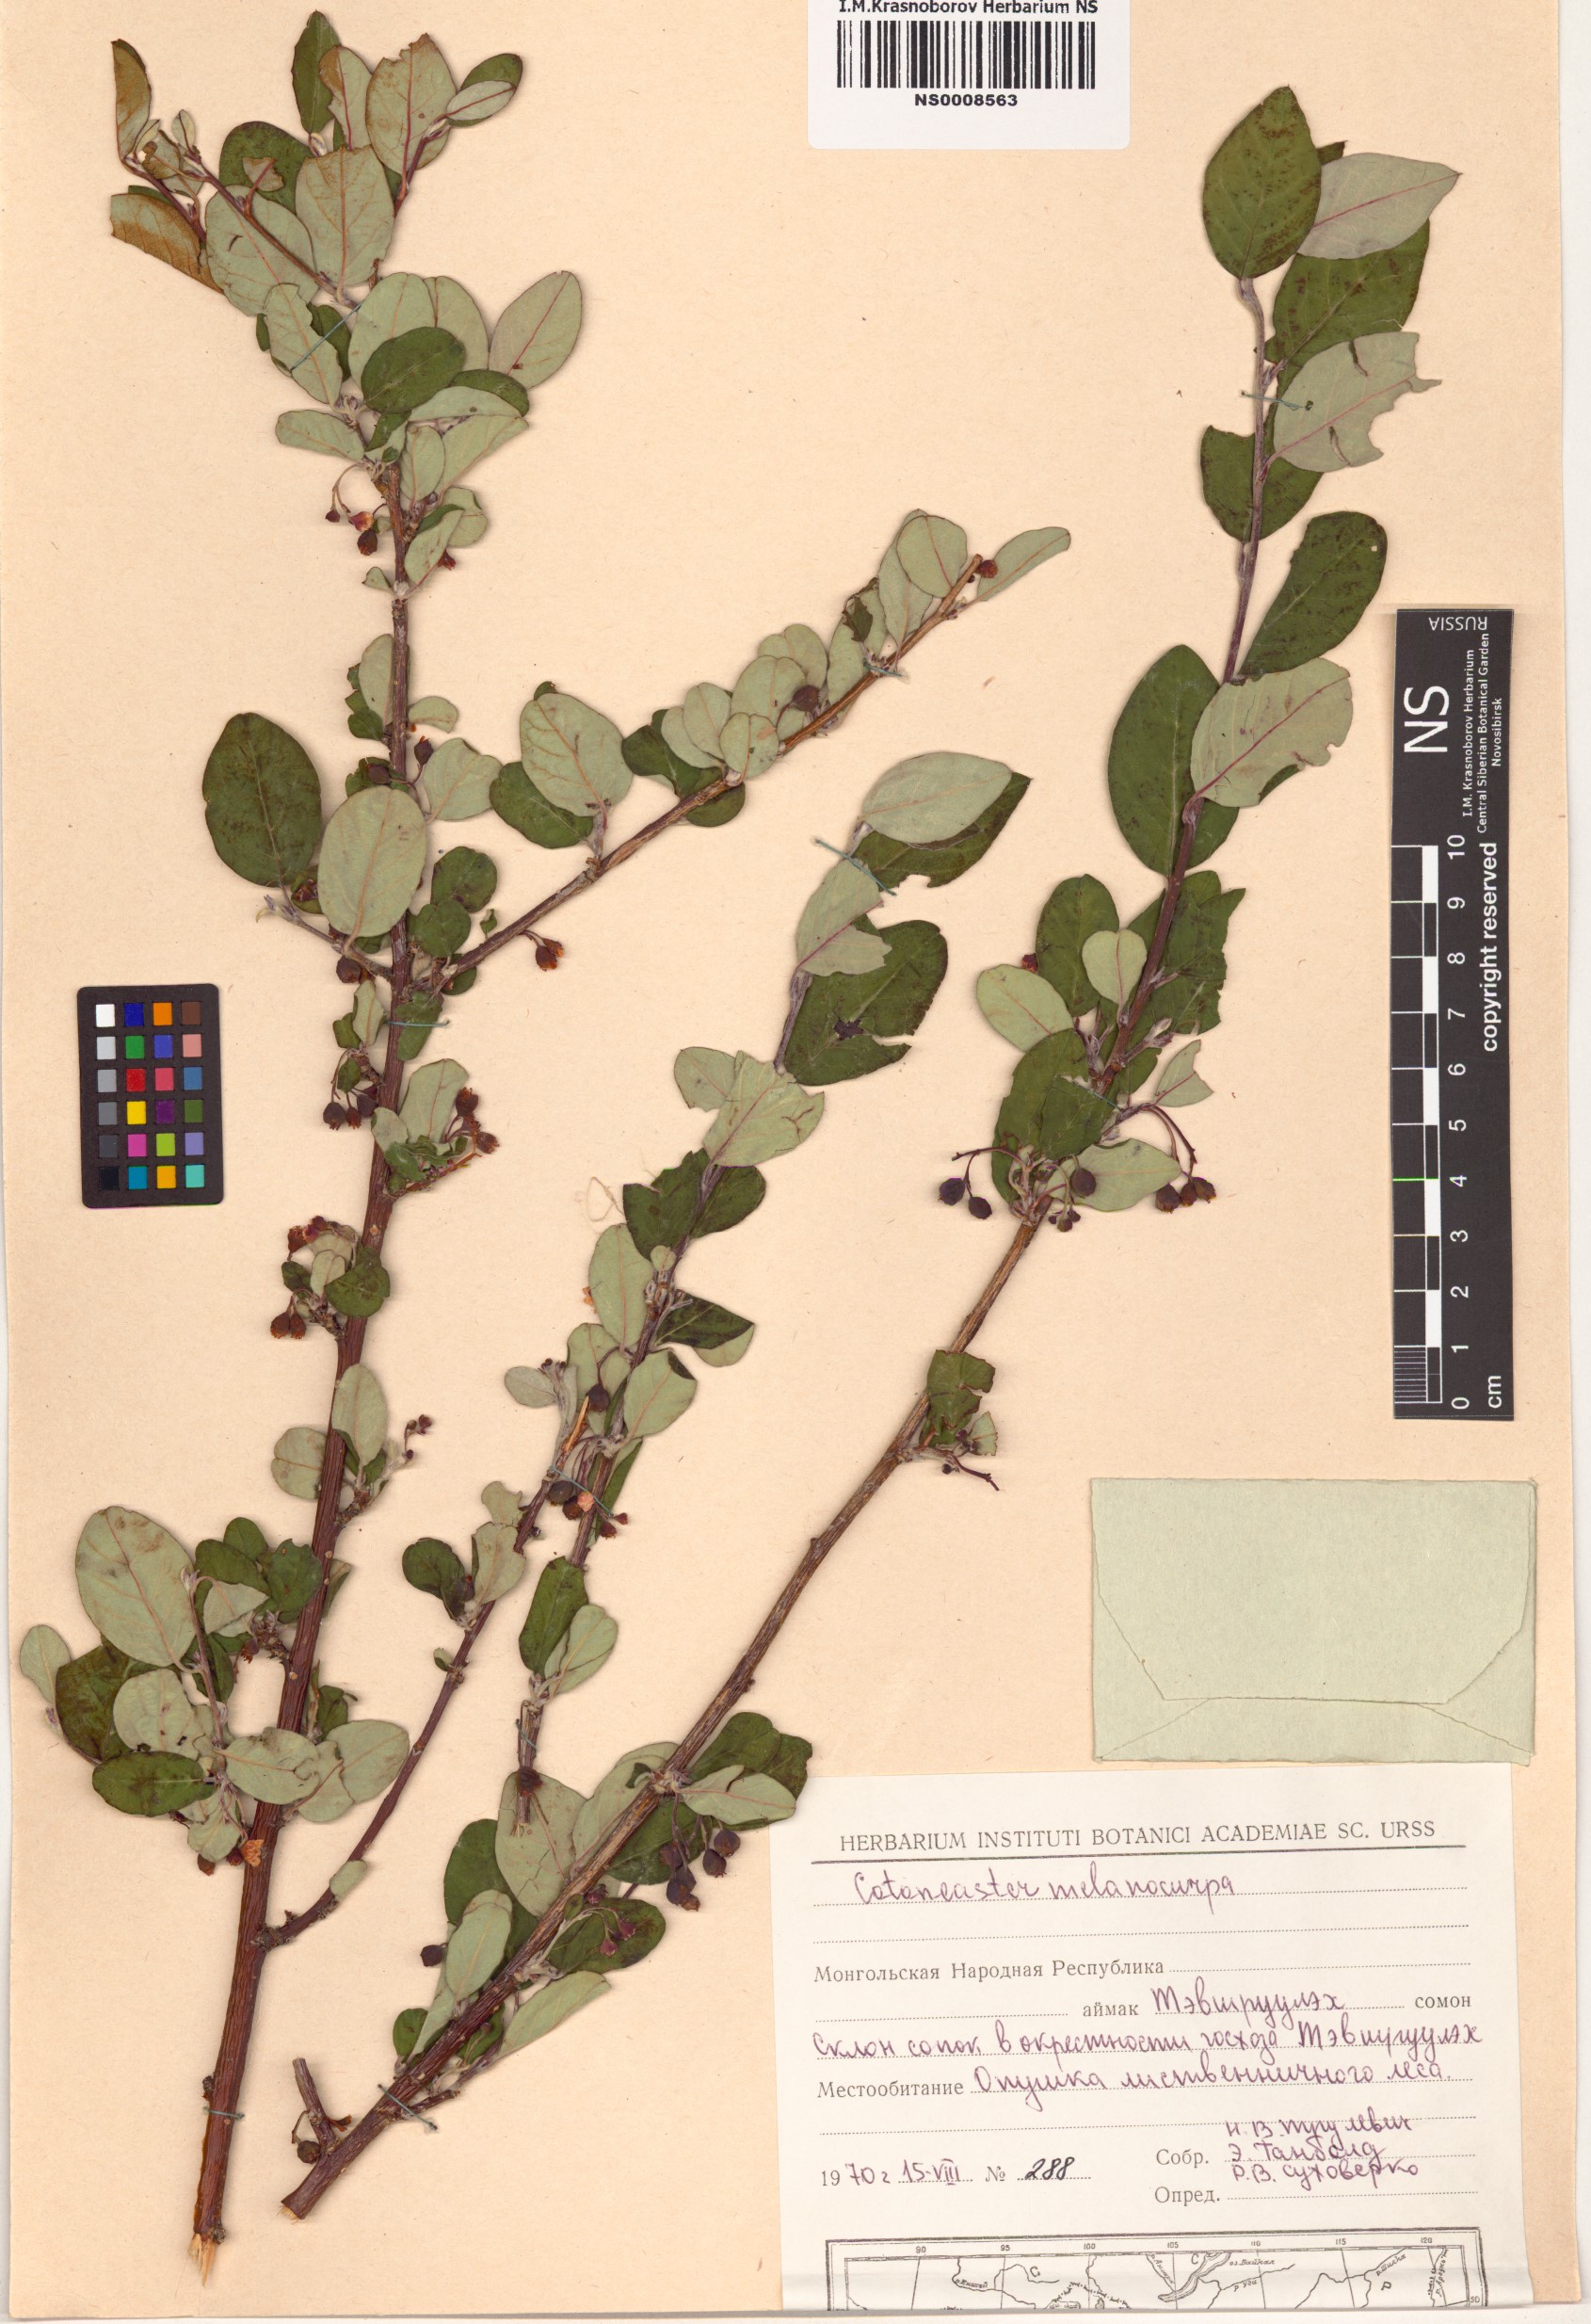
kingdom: Plantae
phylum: Tracheophyta
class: Magnoliopsida
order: Rosales
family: Rosaceae
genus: Cotoneaster
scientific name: Cotoneaster melanocarpus
